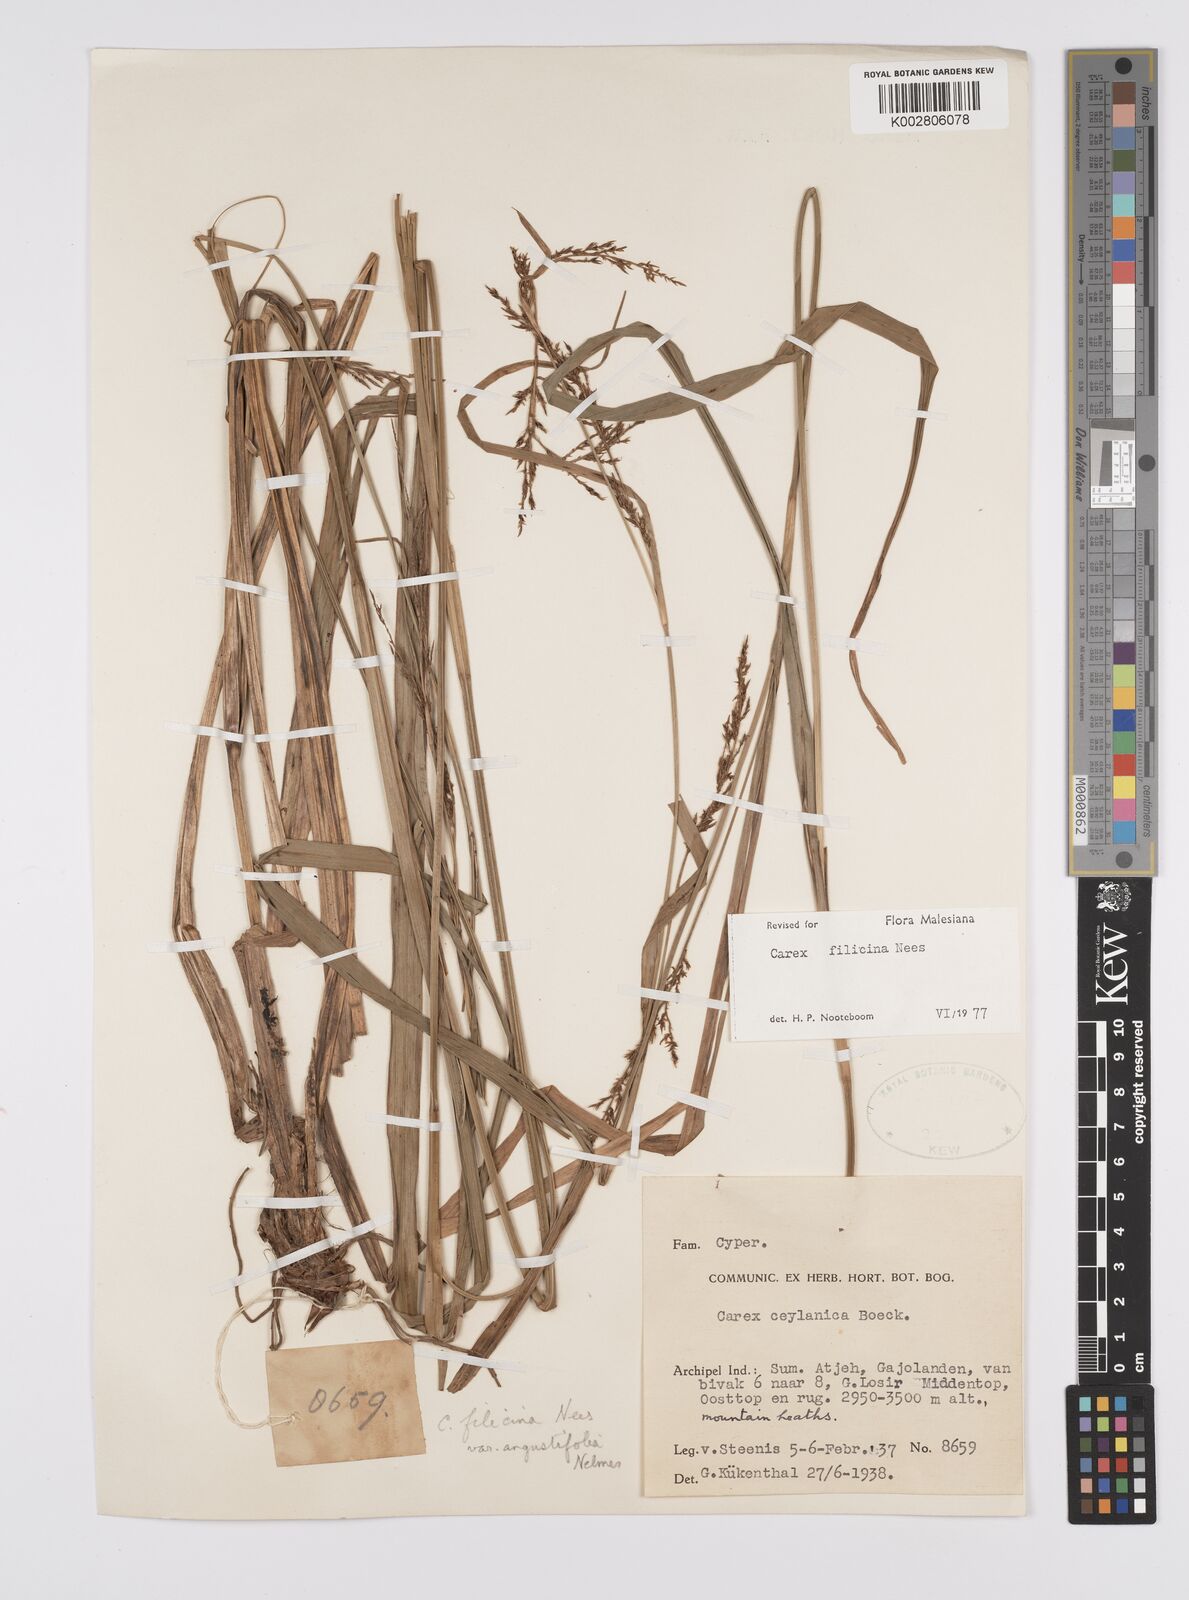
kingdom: Plantae
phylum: Tracheophyta
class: Liliopsida
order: Poales
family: Cyperaceae
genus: Carex
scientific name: Carex filicina
